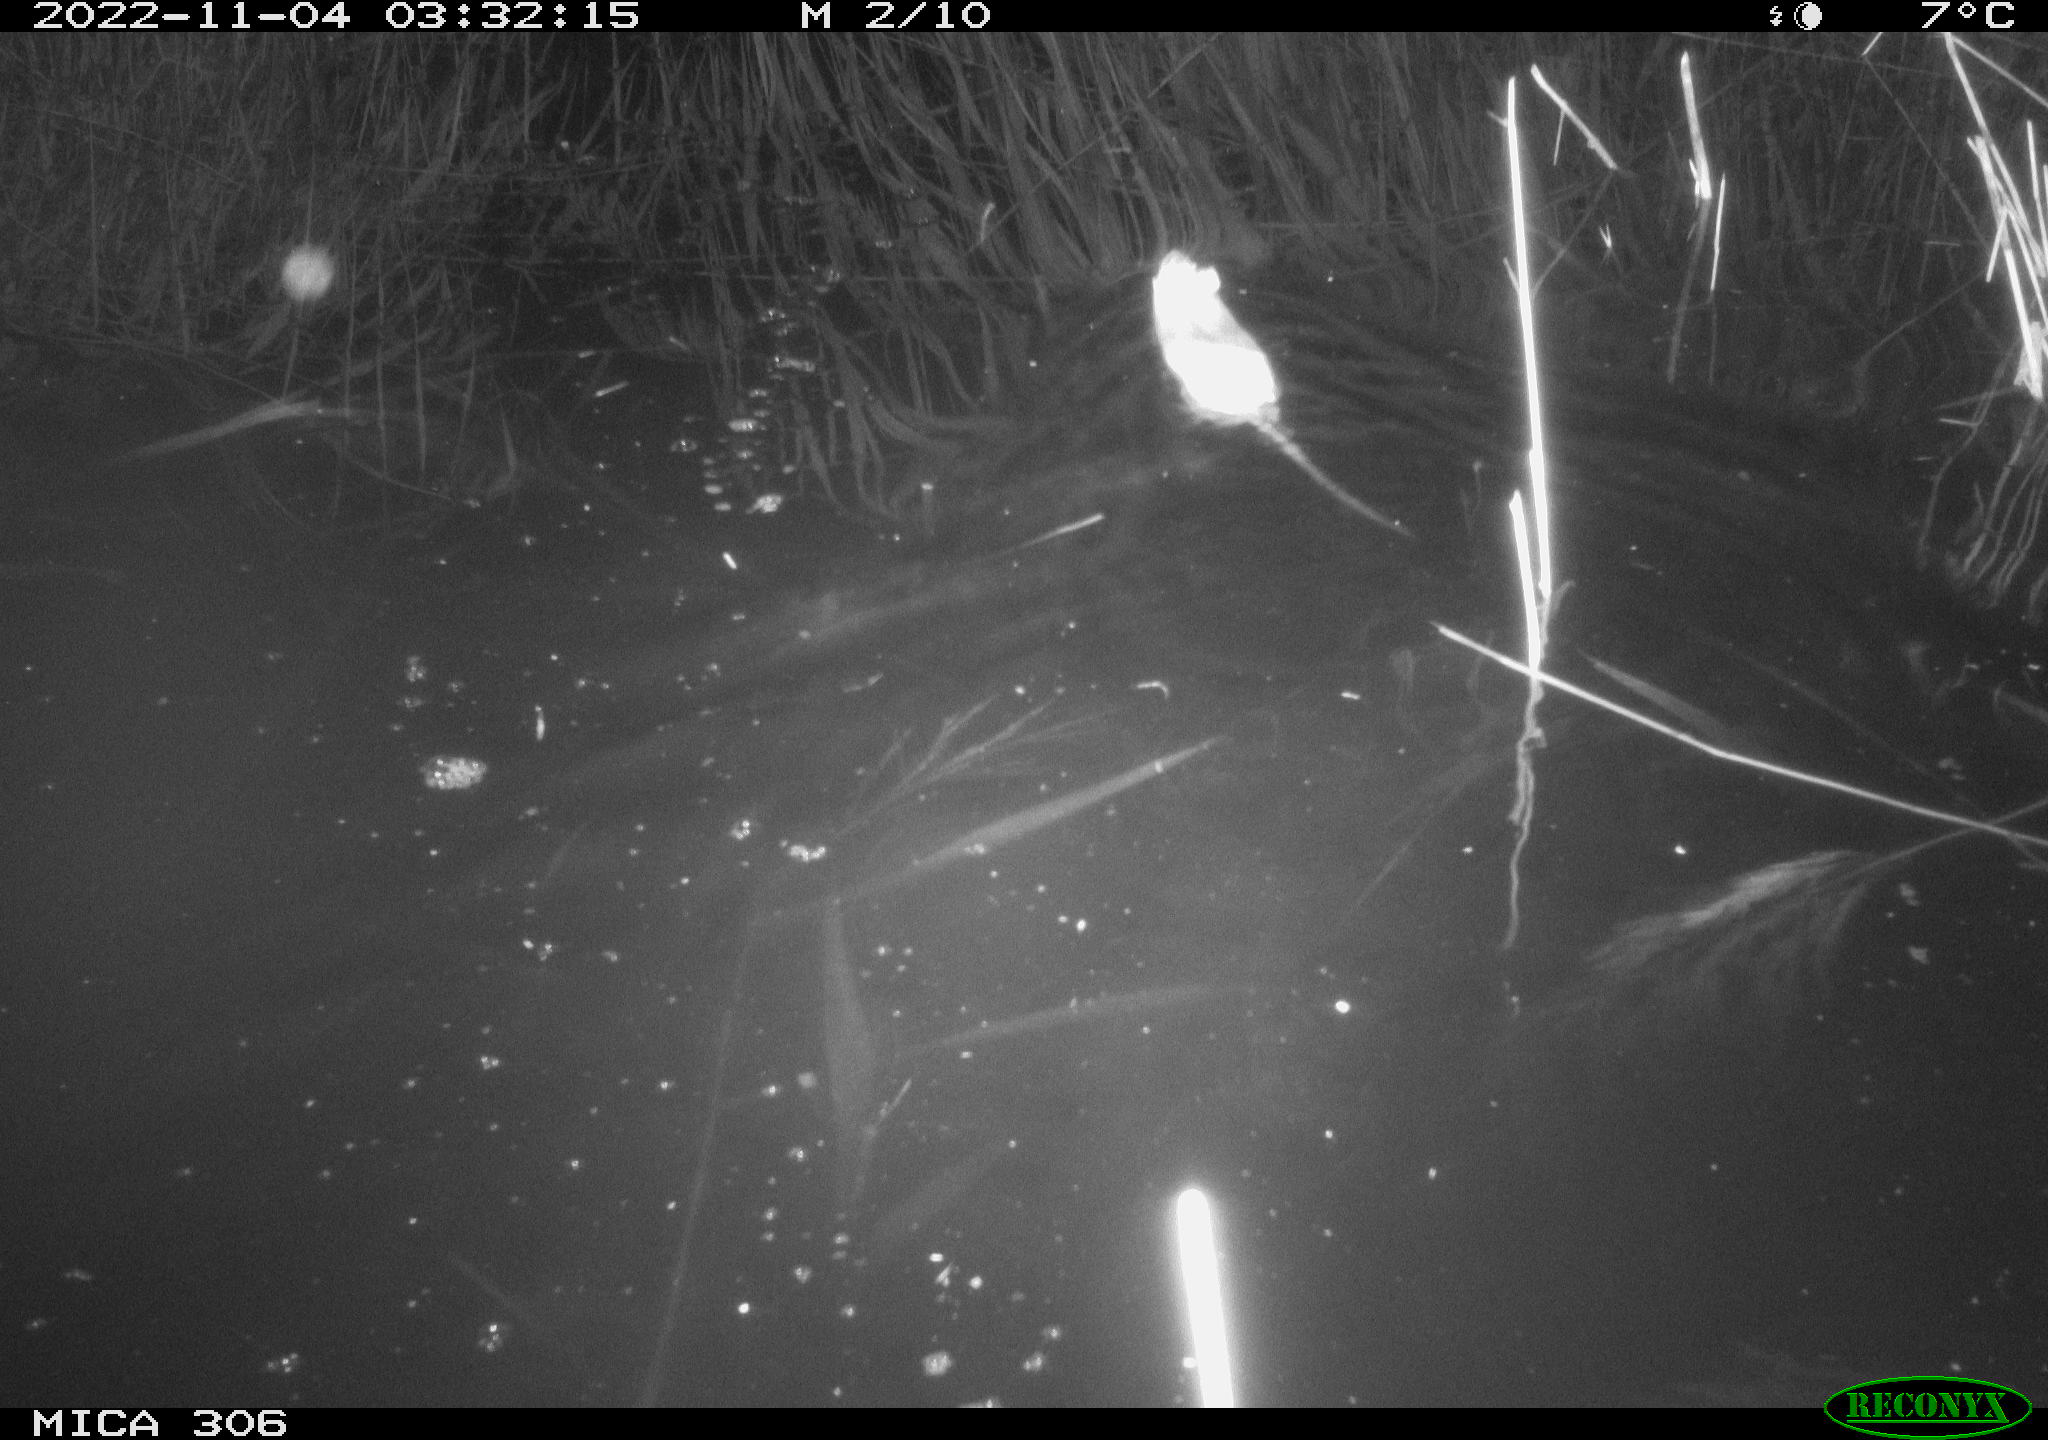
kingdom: Animalia
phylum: Chordata
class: Mammalia
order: Rodentia
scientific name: Rodentia
